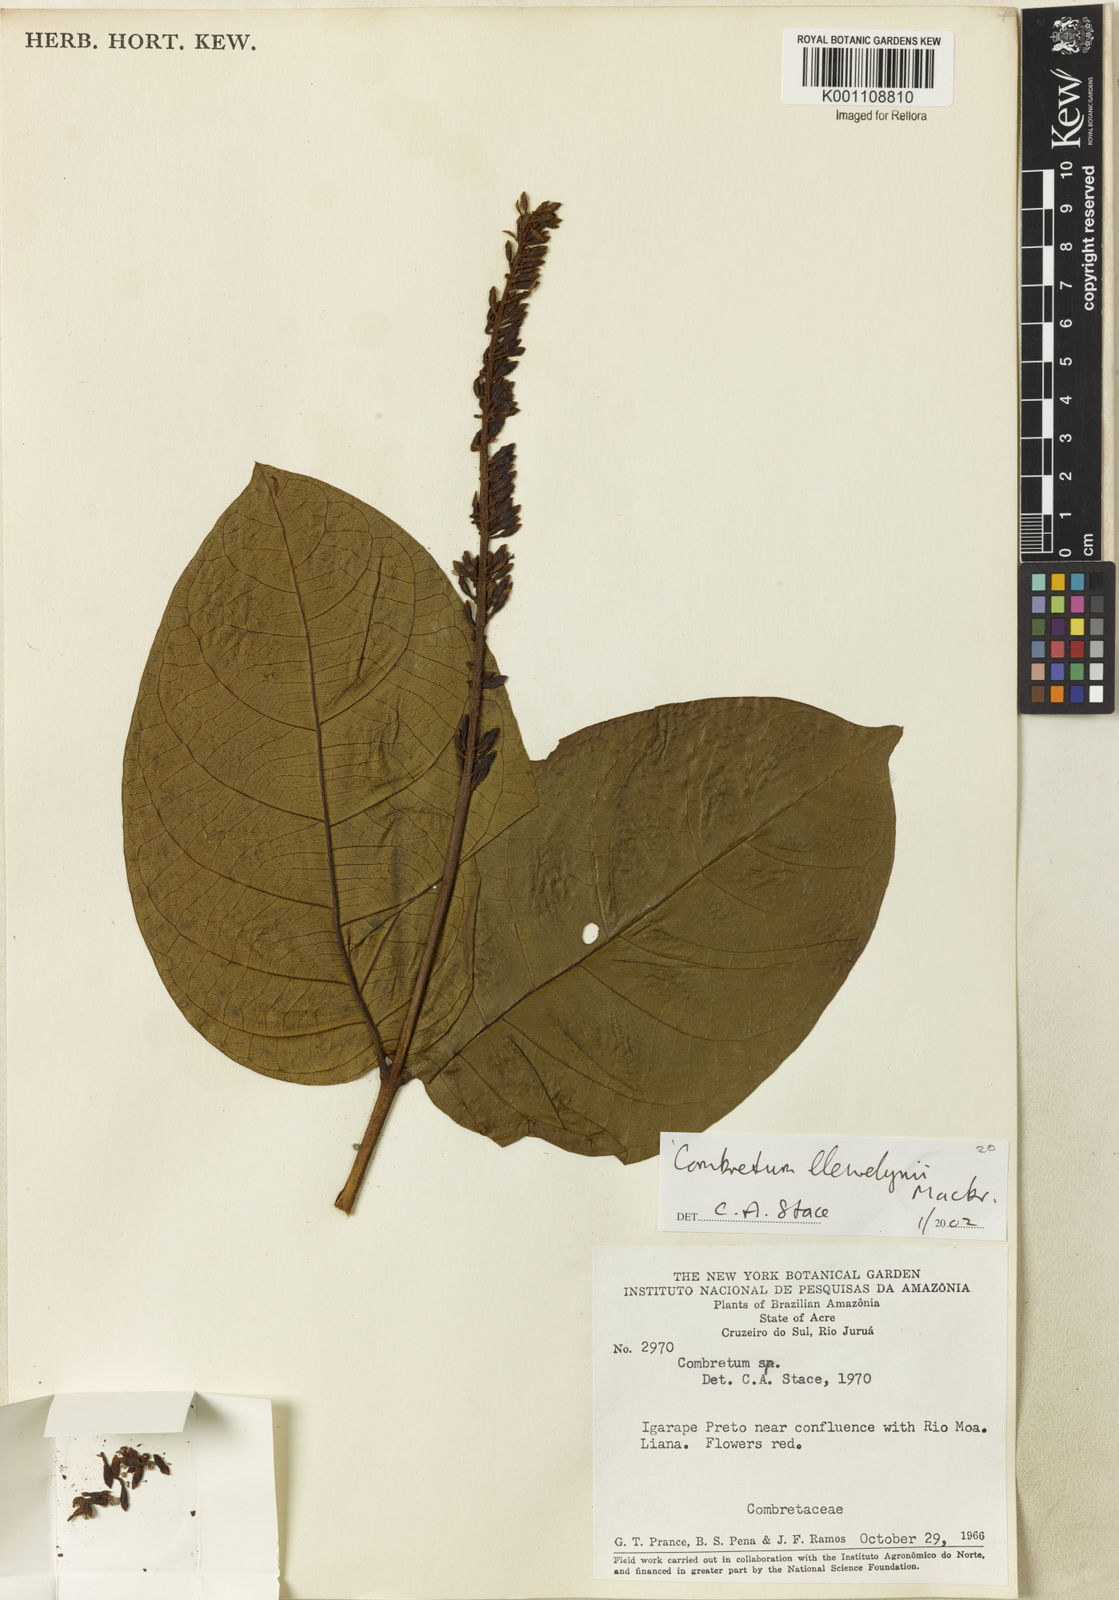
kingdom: Plantae
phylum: Tracheophyta
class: Magnoliopsida
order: Myrtales
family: Combretaceae
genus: Combretum
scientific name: Combretum llewelynii
